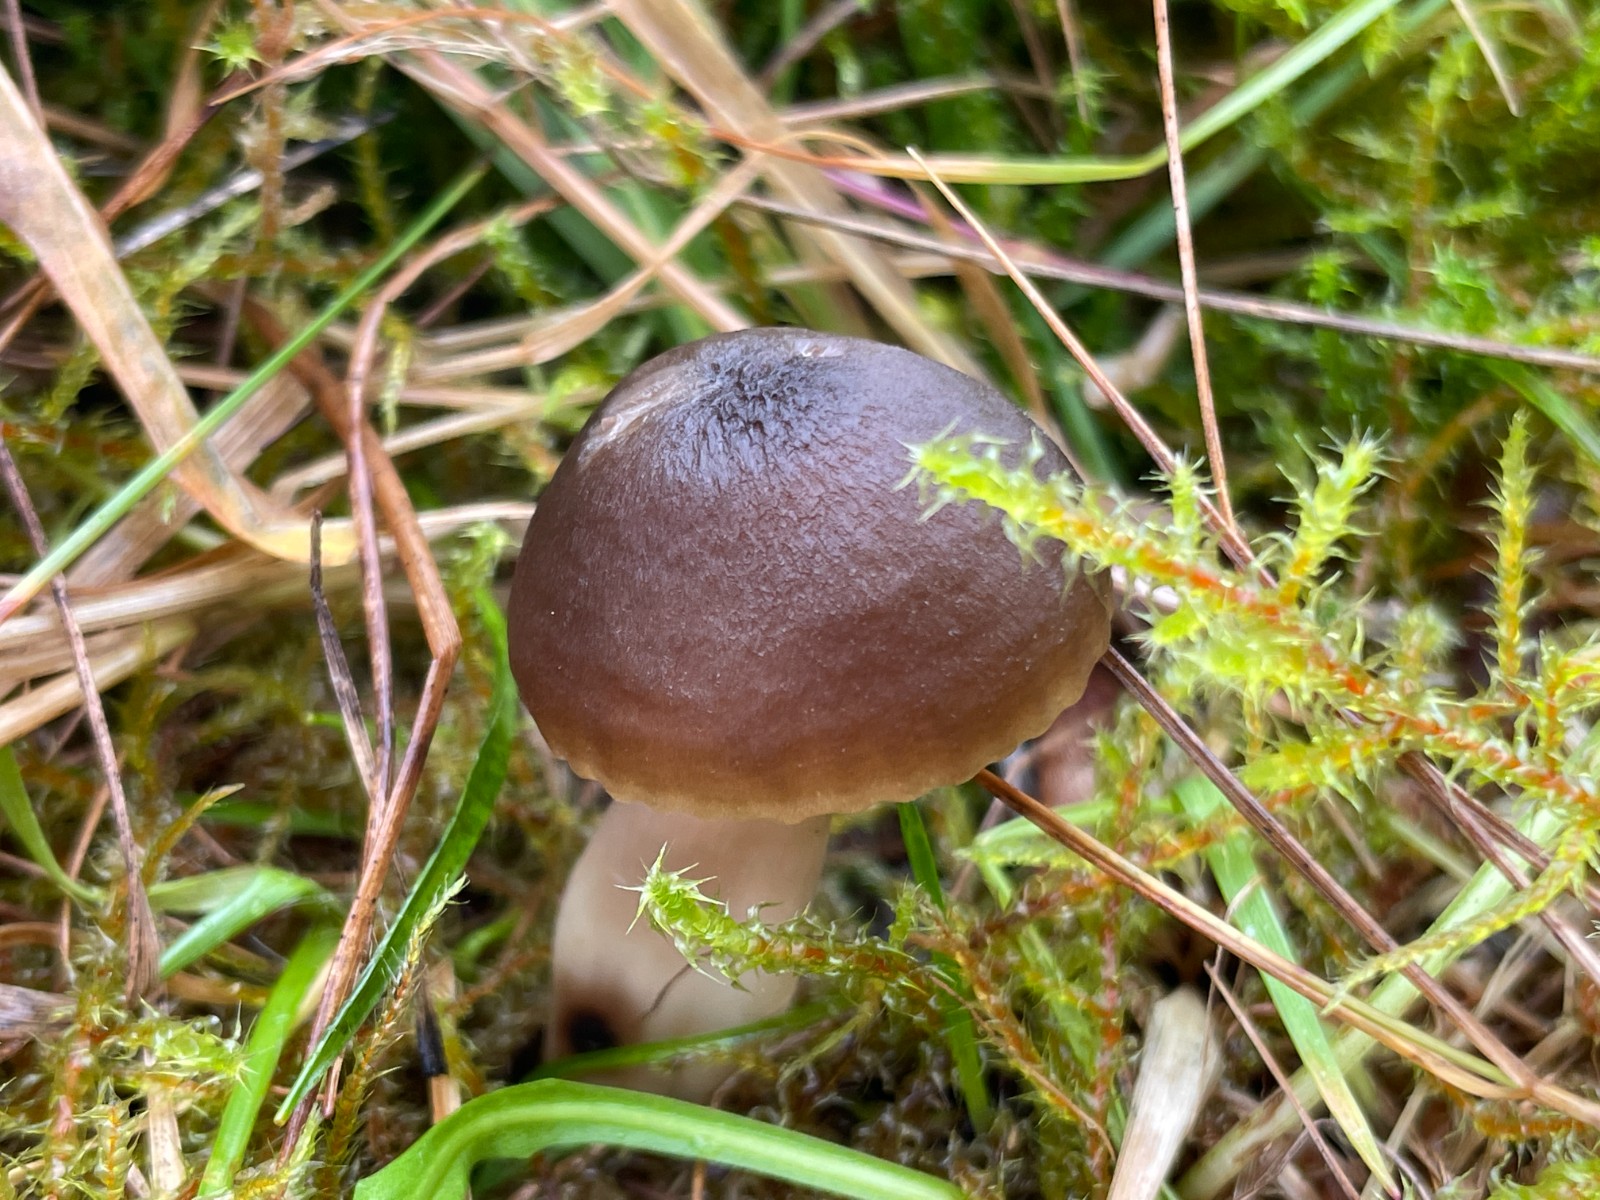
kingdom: Fungi
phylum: Basidiomycota
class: Agaricomycetes
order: Agaricales
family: Hygrophoraceae
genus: Neohygrocybe
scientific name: Neohygrocybe nitrata
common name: stinkende vokshat
